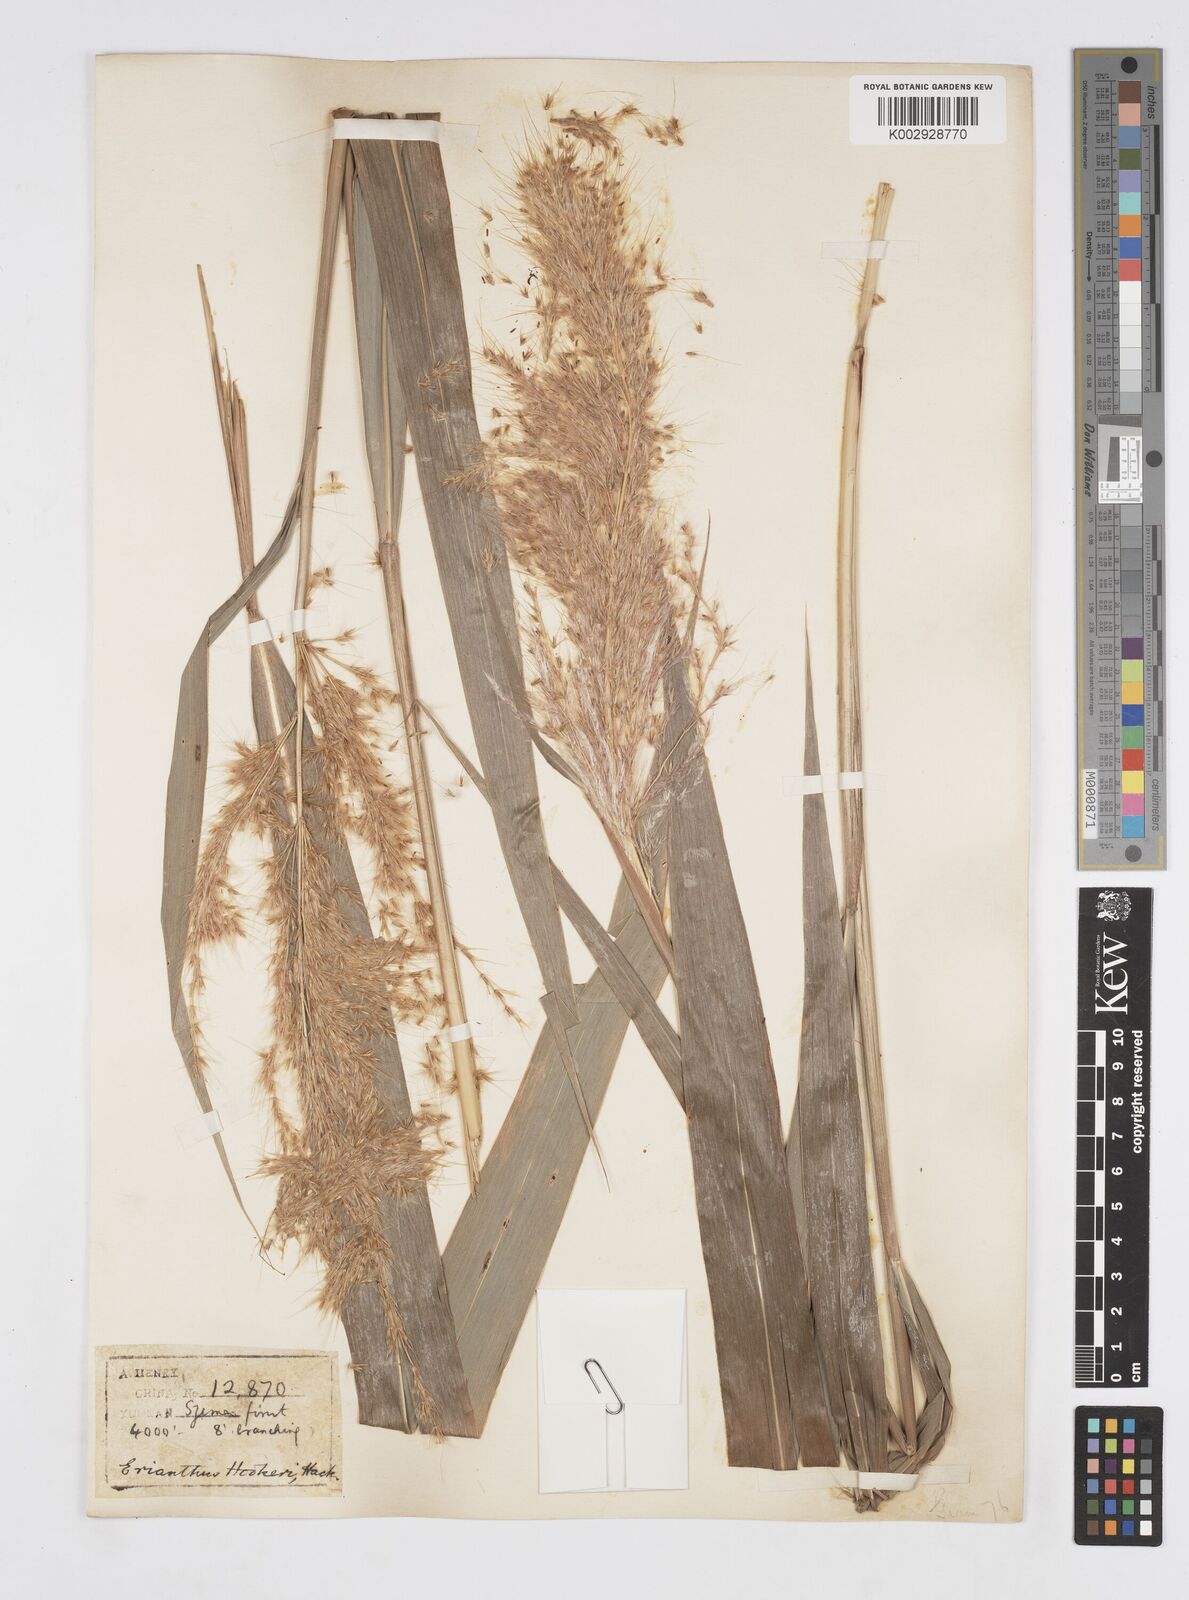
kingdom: Plantae
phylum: Tracheophyta
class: Liliopsida
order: Poales
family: Poaceae
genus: Melinis
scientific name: Melinis longiseta
